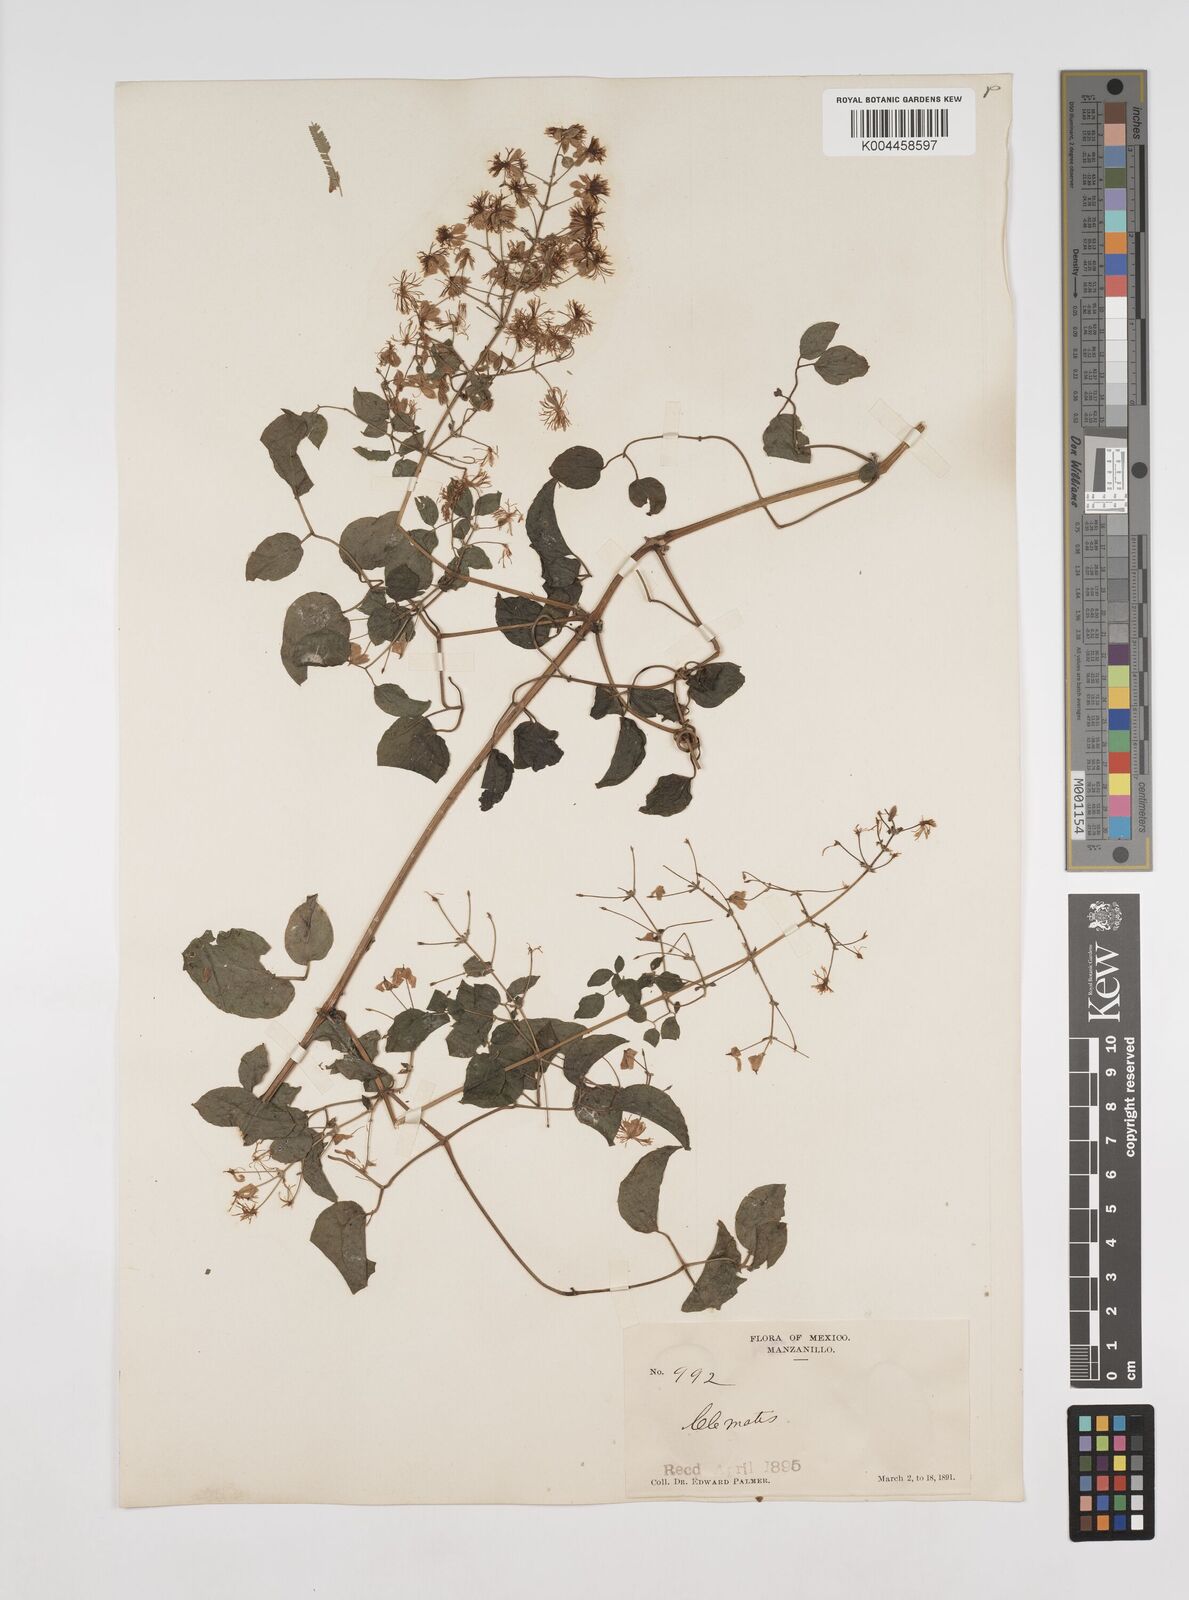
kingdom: Plantae
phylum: Tracheophyta
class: Magnoliopsida
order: Ranunculales
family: Ranunculaceae
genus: Clematis
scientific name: Clematis acapulcensis
